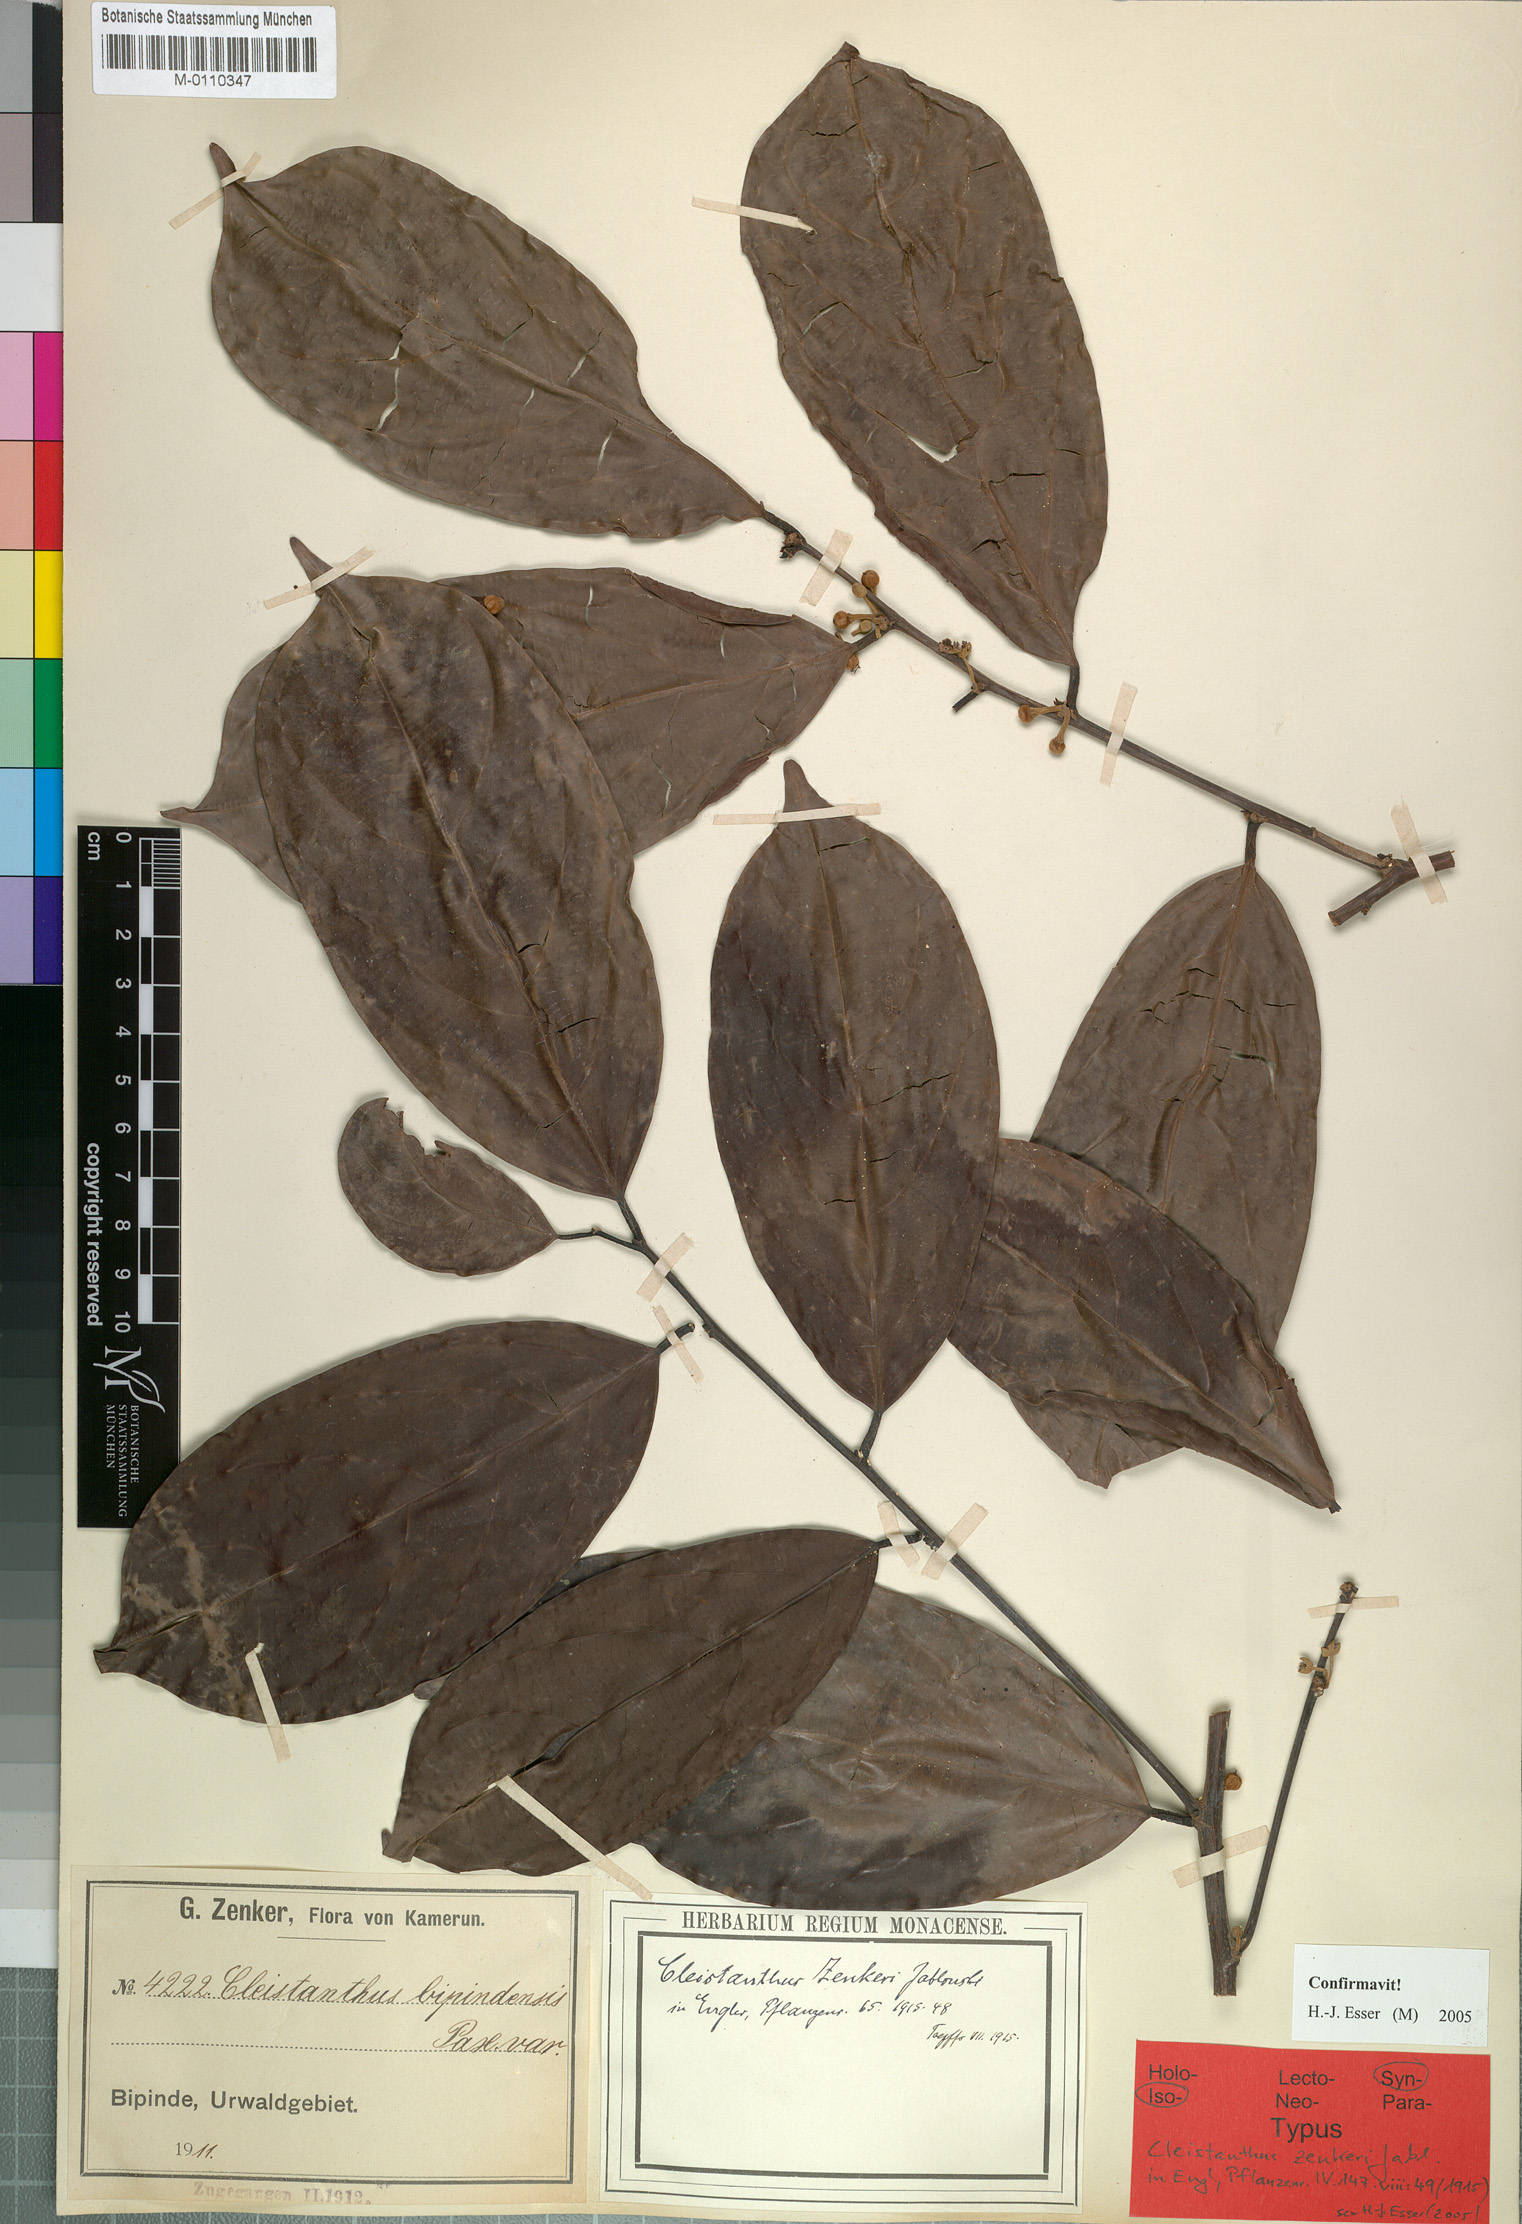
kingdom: Plantae
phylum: Tracheophyta
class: Magnoliopsida
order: Malpighiales
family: Phyllanthaceae
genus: Cleistanthus
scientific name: Cleistanthus zenkeri
